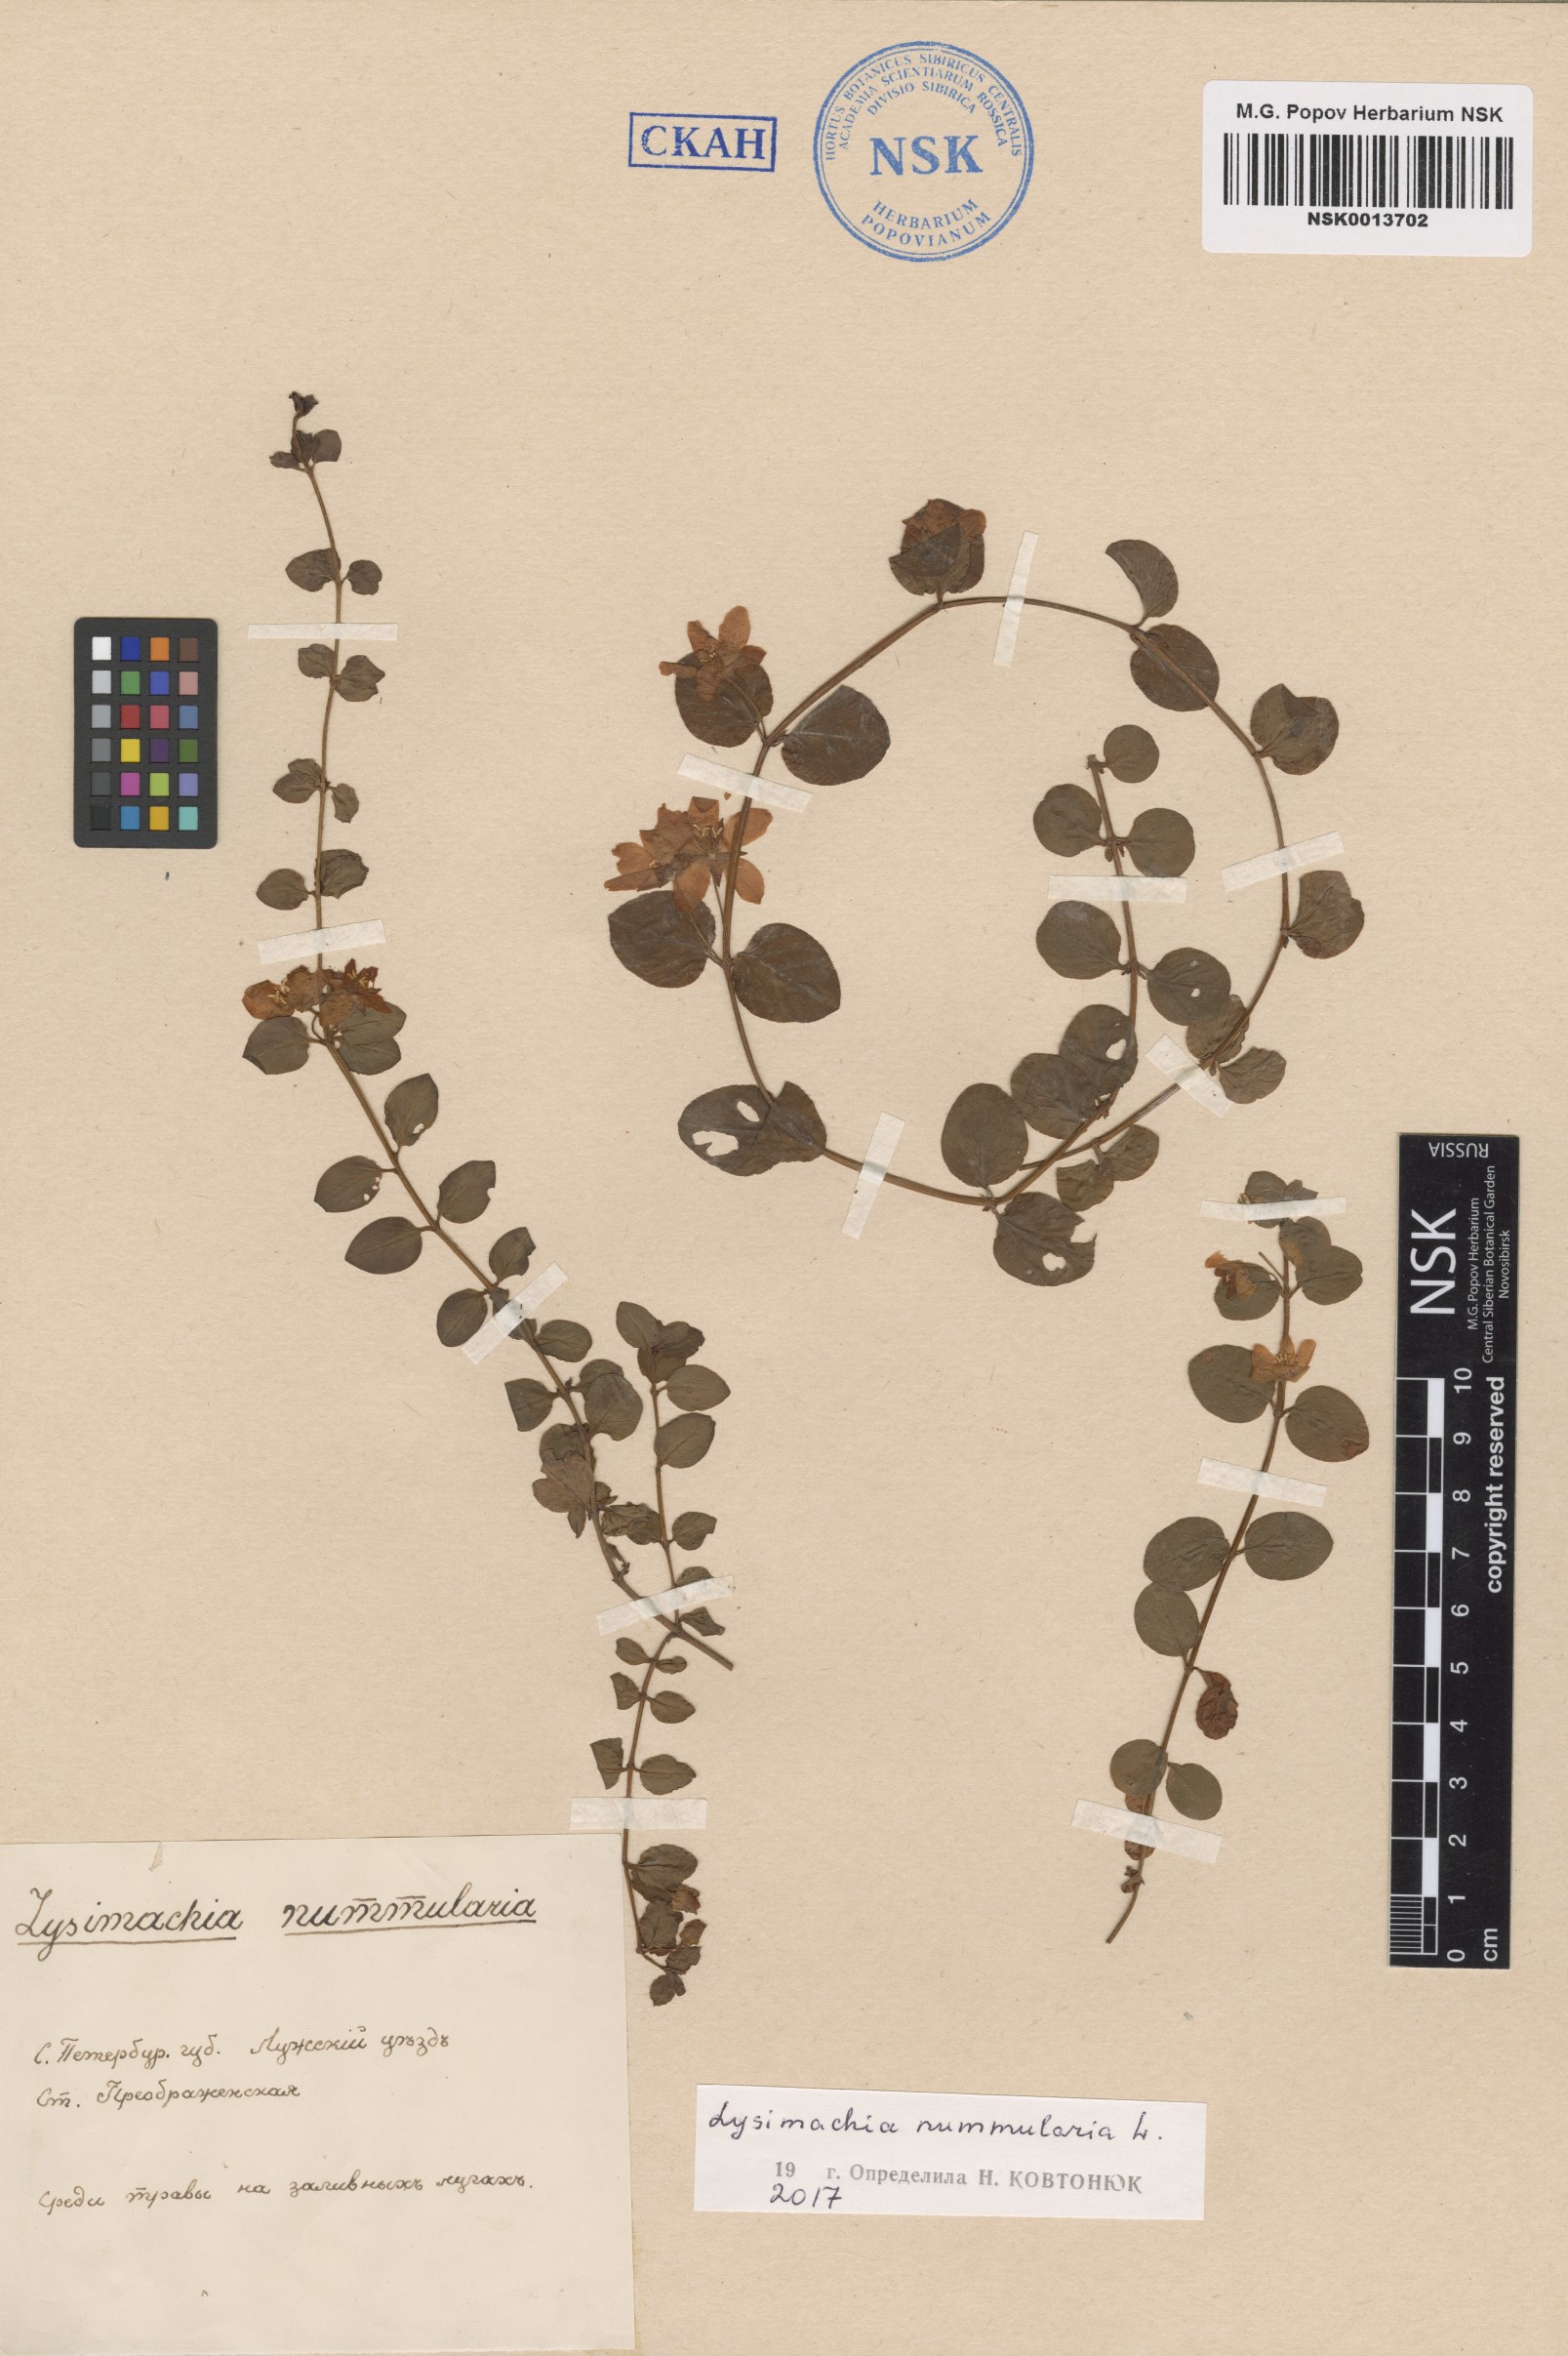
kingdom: Plantae
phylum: Tracheophyta
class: Magnoliopsida
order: Ericales
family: Primulaceae
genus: Lysimachia
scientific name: Lysimachia nummularia
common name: Moneywort
